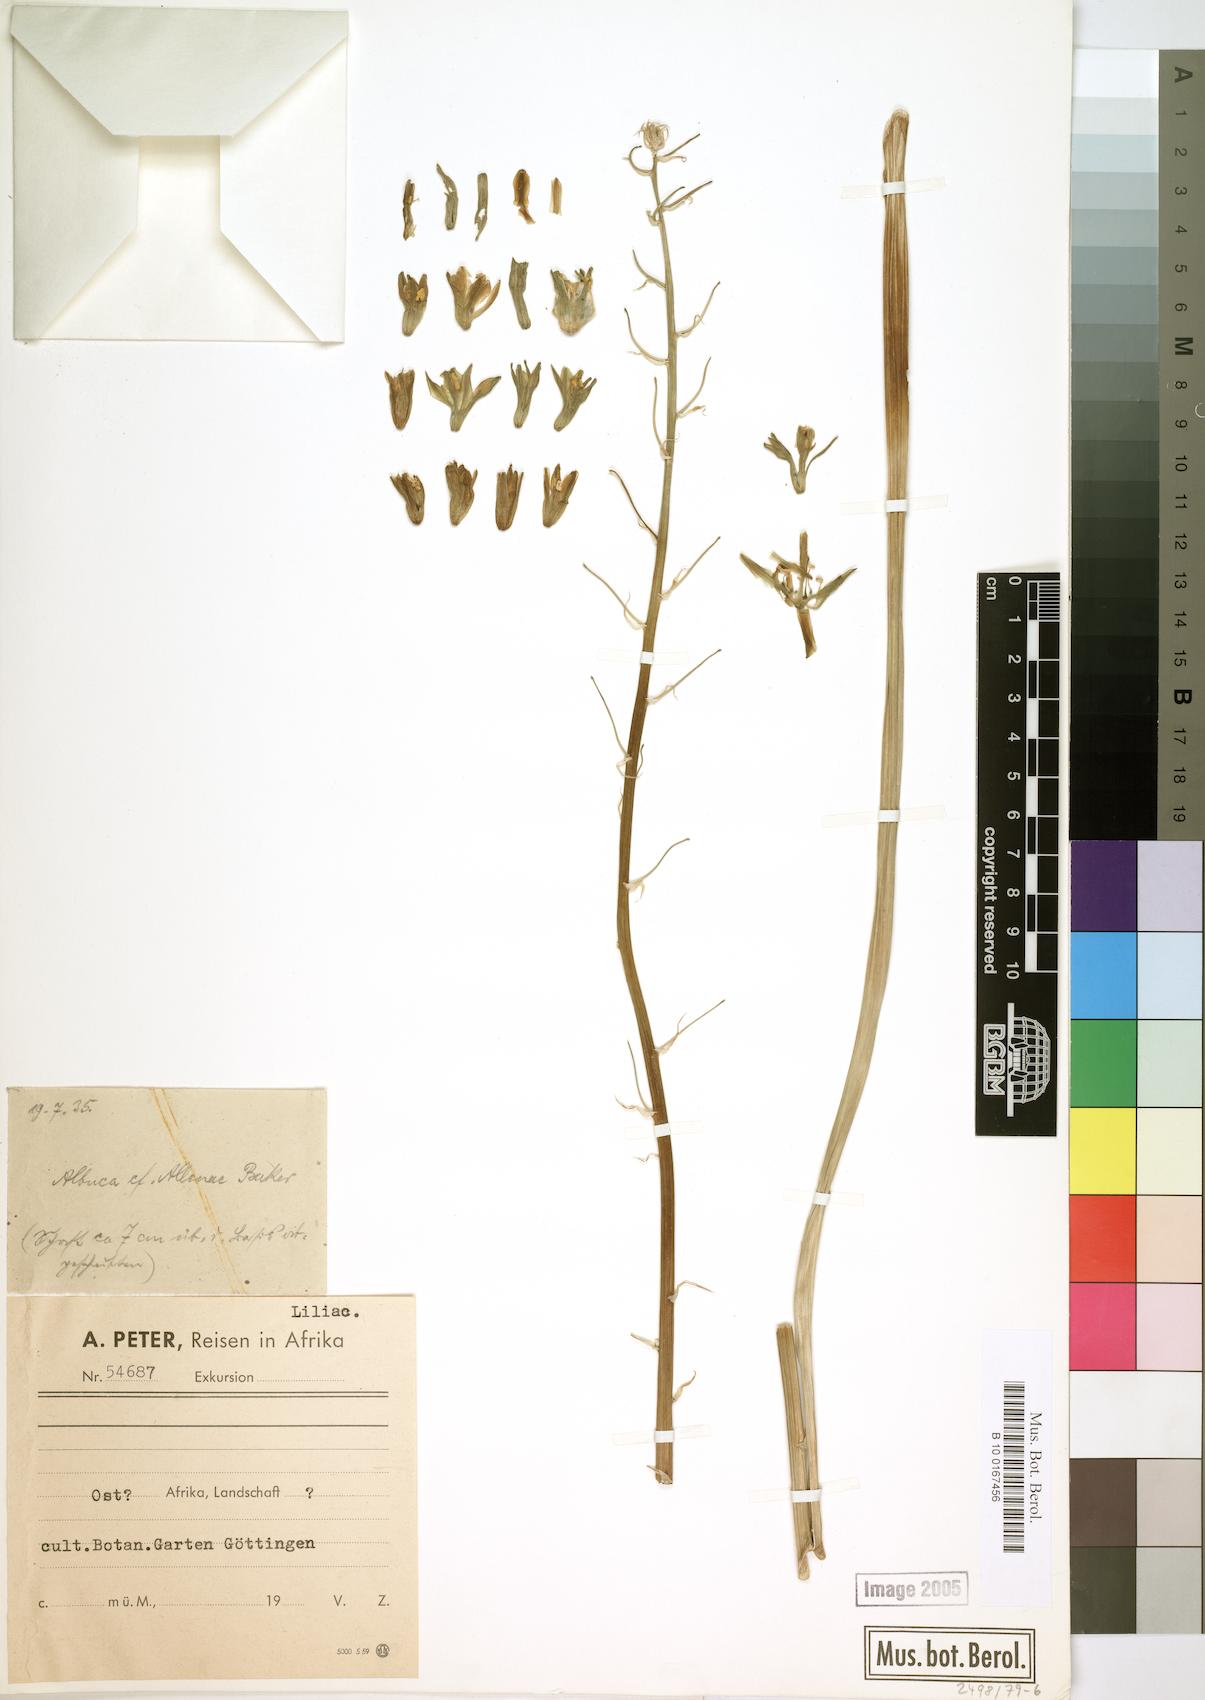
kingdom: Plantae
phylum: Tracheophyta
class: Liliopsida
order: Asparagales
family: Asparagaceae
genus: Albuca
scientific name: Albuca abyssinica
